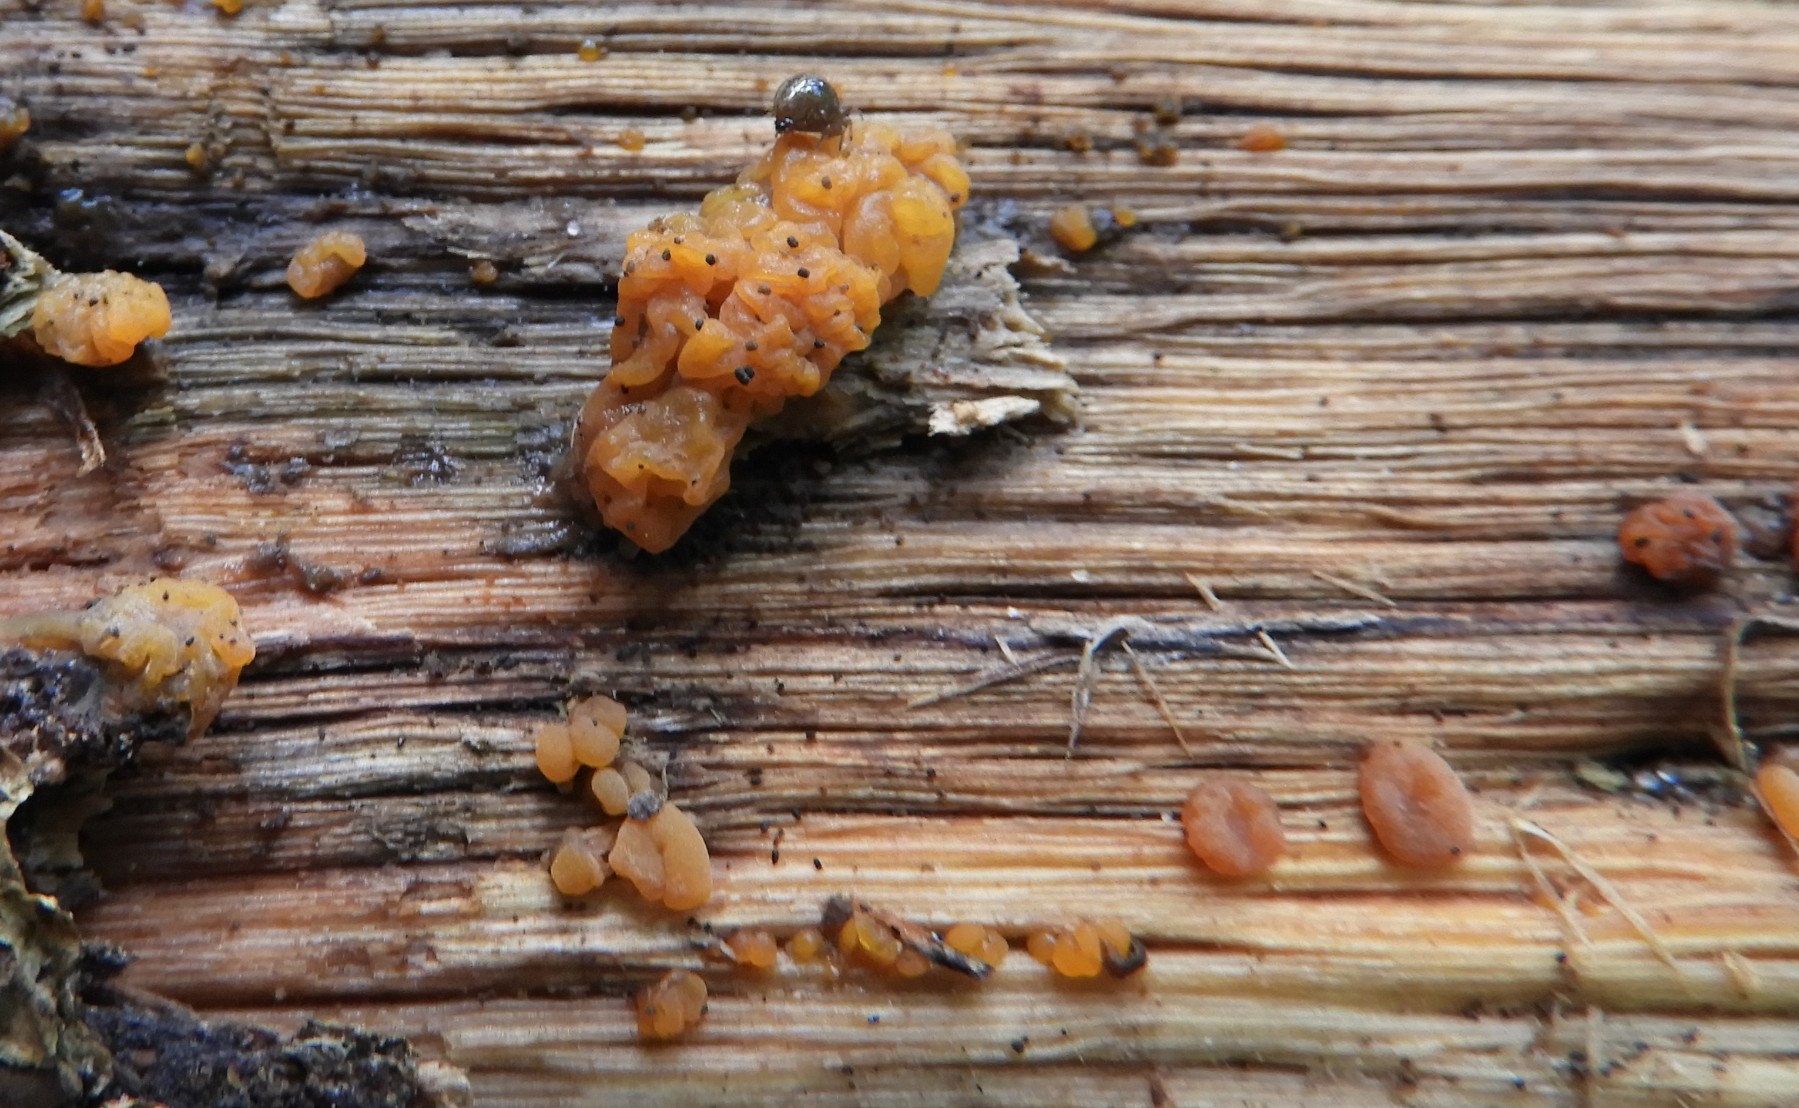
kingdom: Fungi
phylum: Basidiomycota
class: Dacrymycetes
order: Dacrymycetales
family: Dacrymycetaceae
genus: Dacrymyces
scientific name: Dacrymyces lacrymalis
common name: rynket tåresvamp
